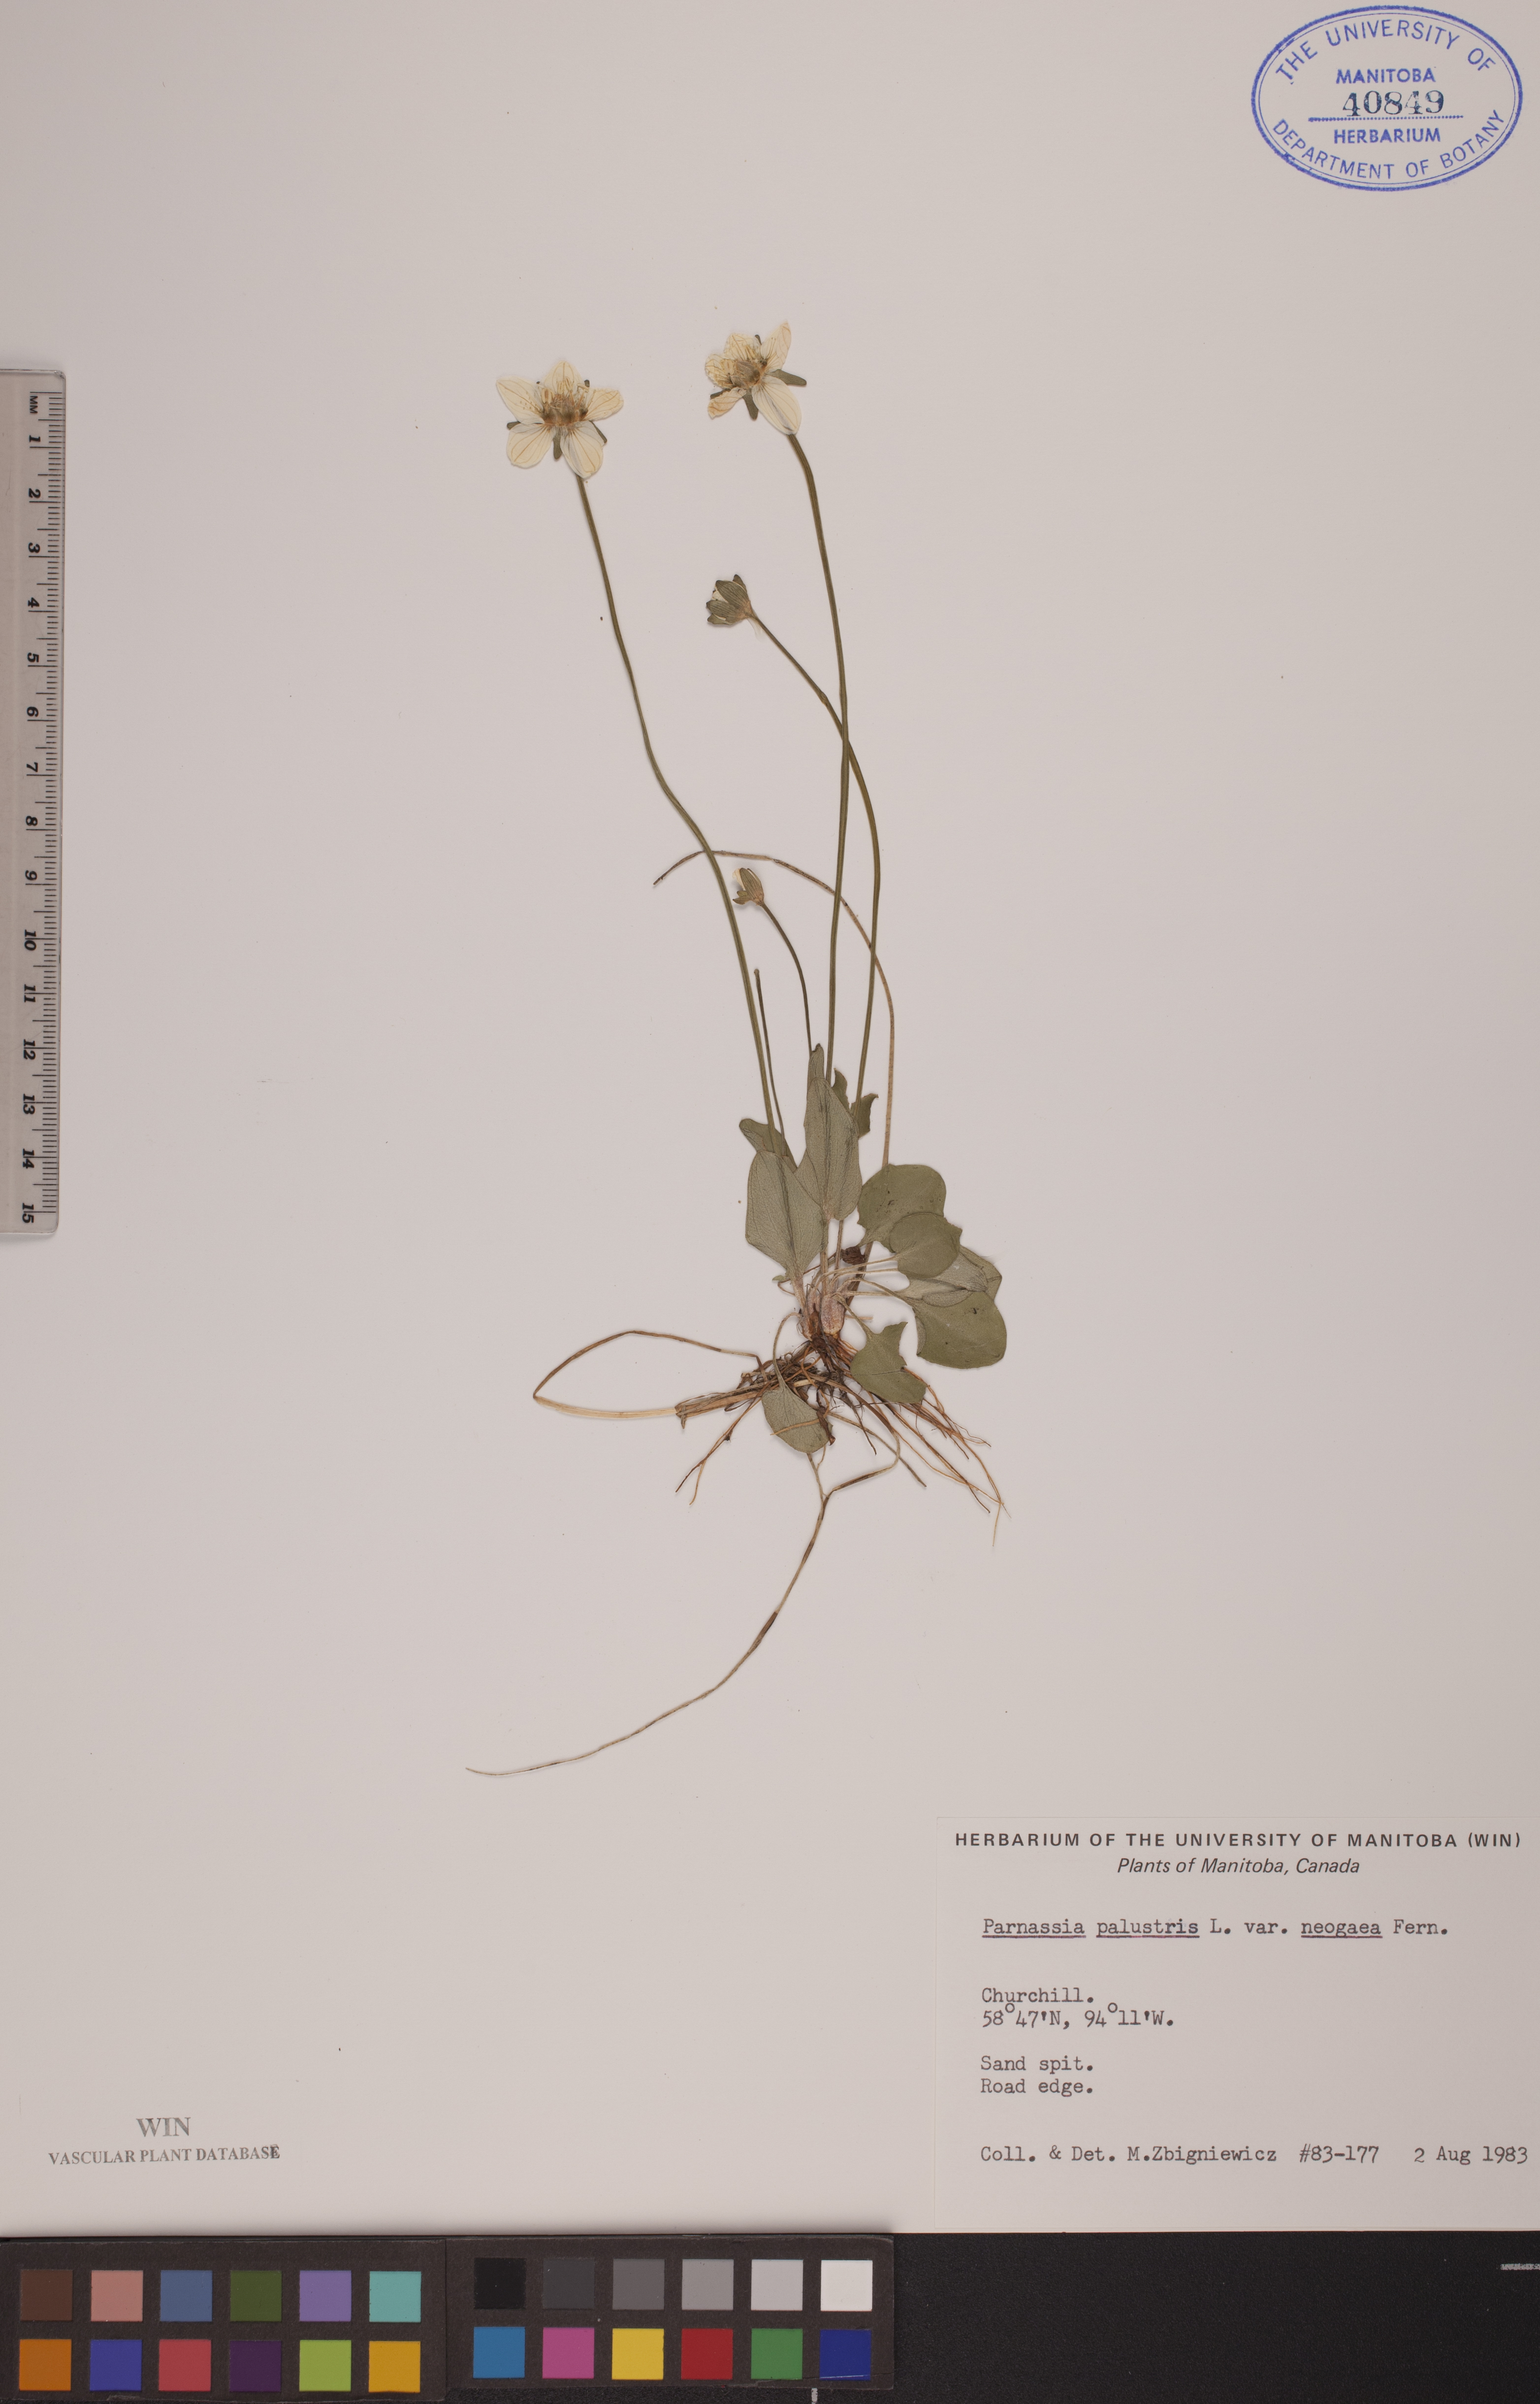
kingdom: Plantae
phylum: Tracheophyta
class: Magnoliopsida
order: Celastrales
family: Parnassiaceae
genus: Parnassia
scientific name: Parnassia palustris
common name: Grass-of-parnassus
